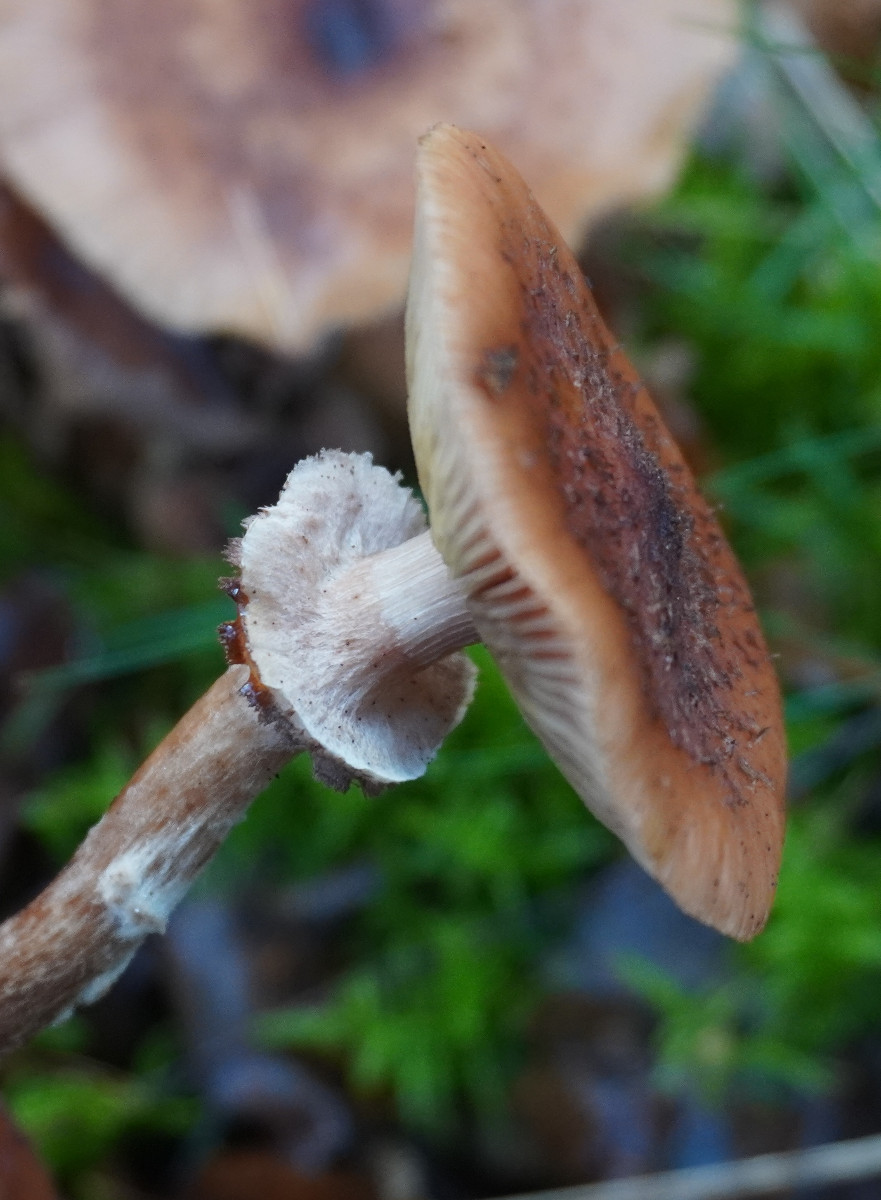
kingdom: Fungi
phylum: Basidiomycota
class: Agaricomycetes
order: Agaricales
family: Physalacriaceae
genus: Armillaria
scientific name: Armillaria ostoyae
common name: mørk honningsvamp
